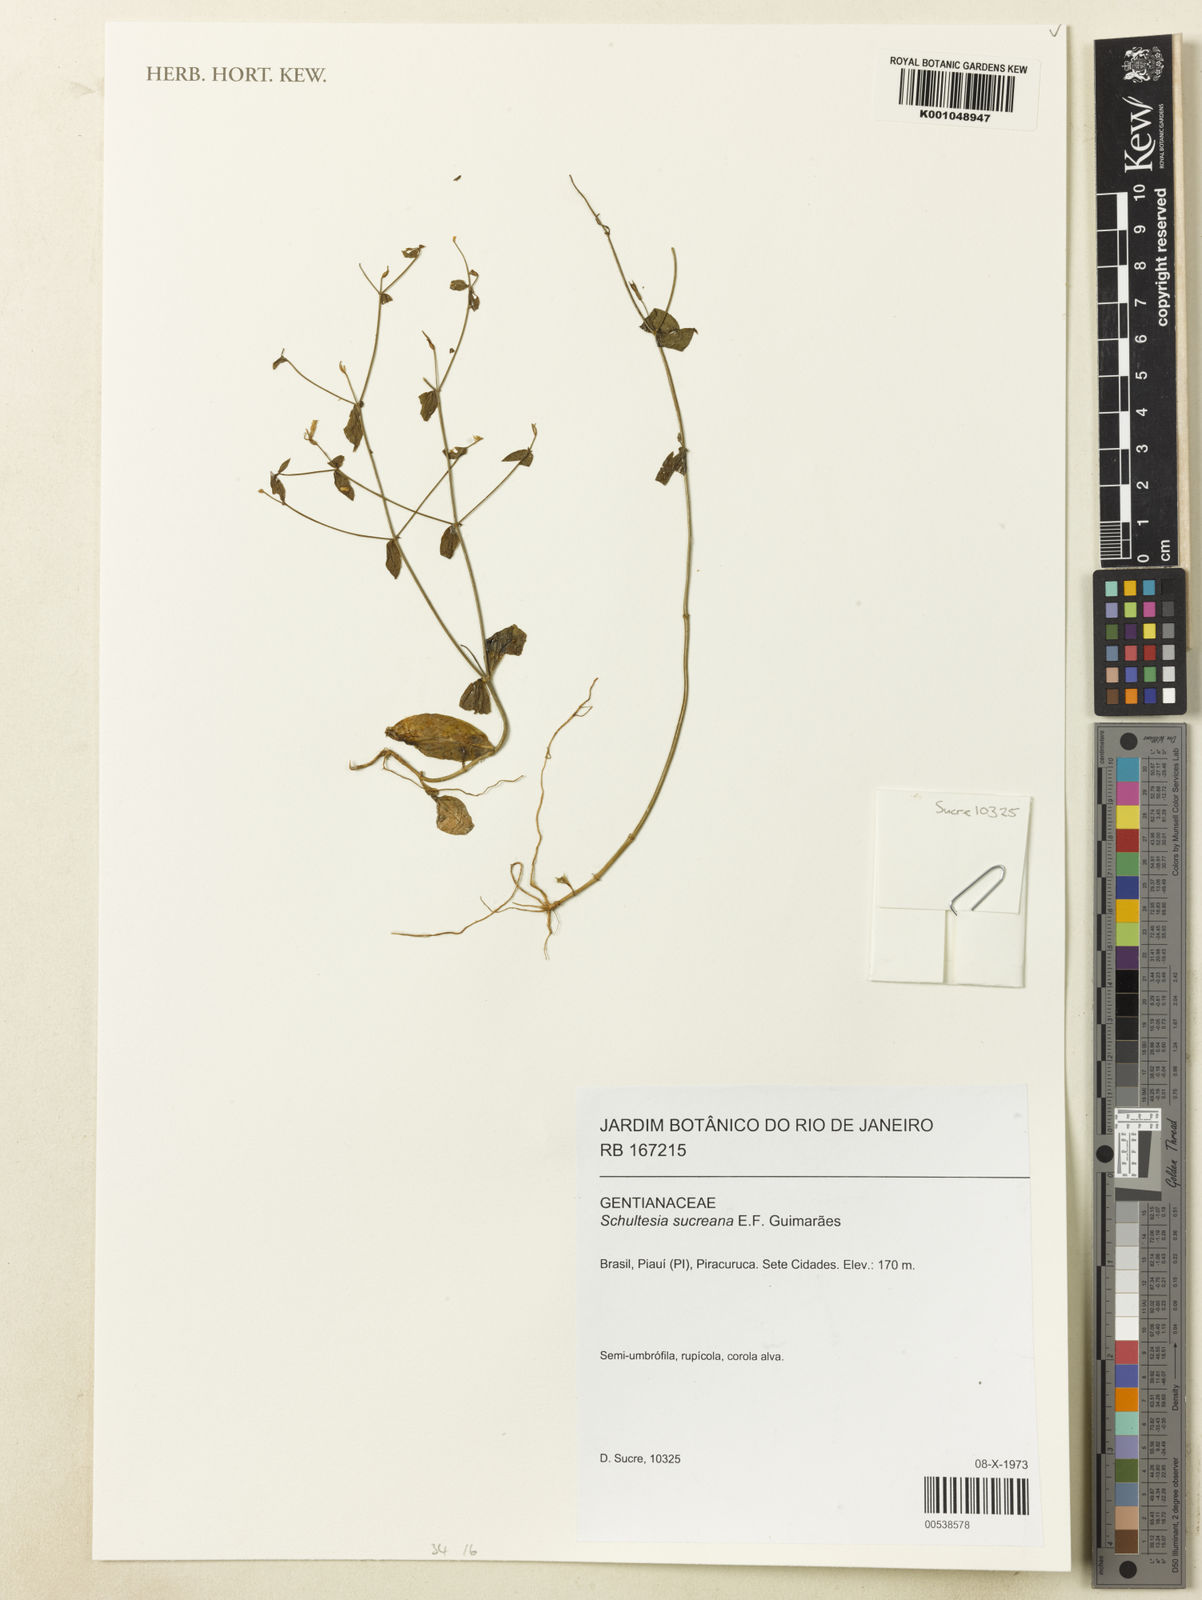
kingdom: Plantae
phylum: Tracheophyta
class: Magnoliopsida
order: Gentianales
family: Gentianaceae
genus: Symphyllophyton
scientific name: Symphyllophyton sucreanum
